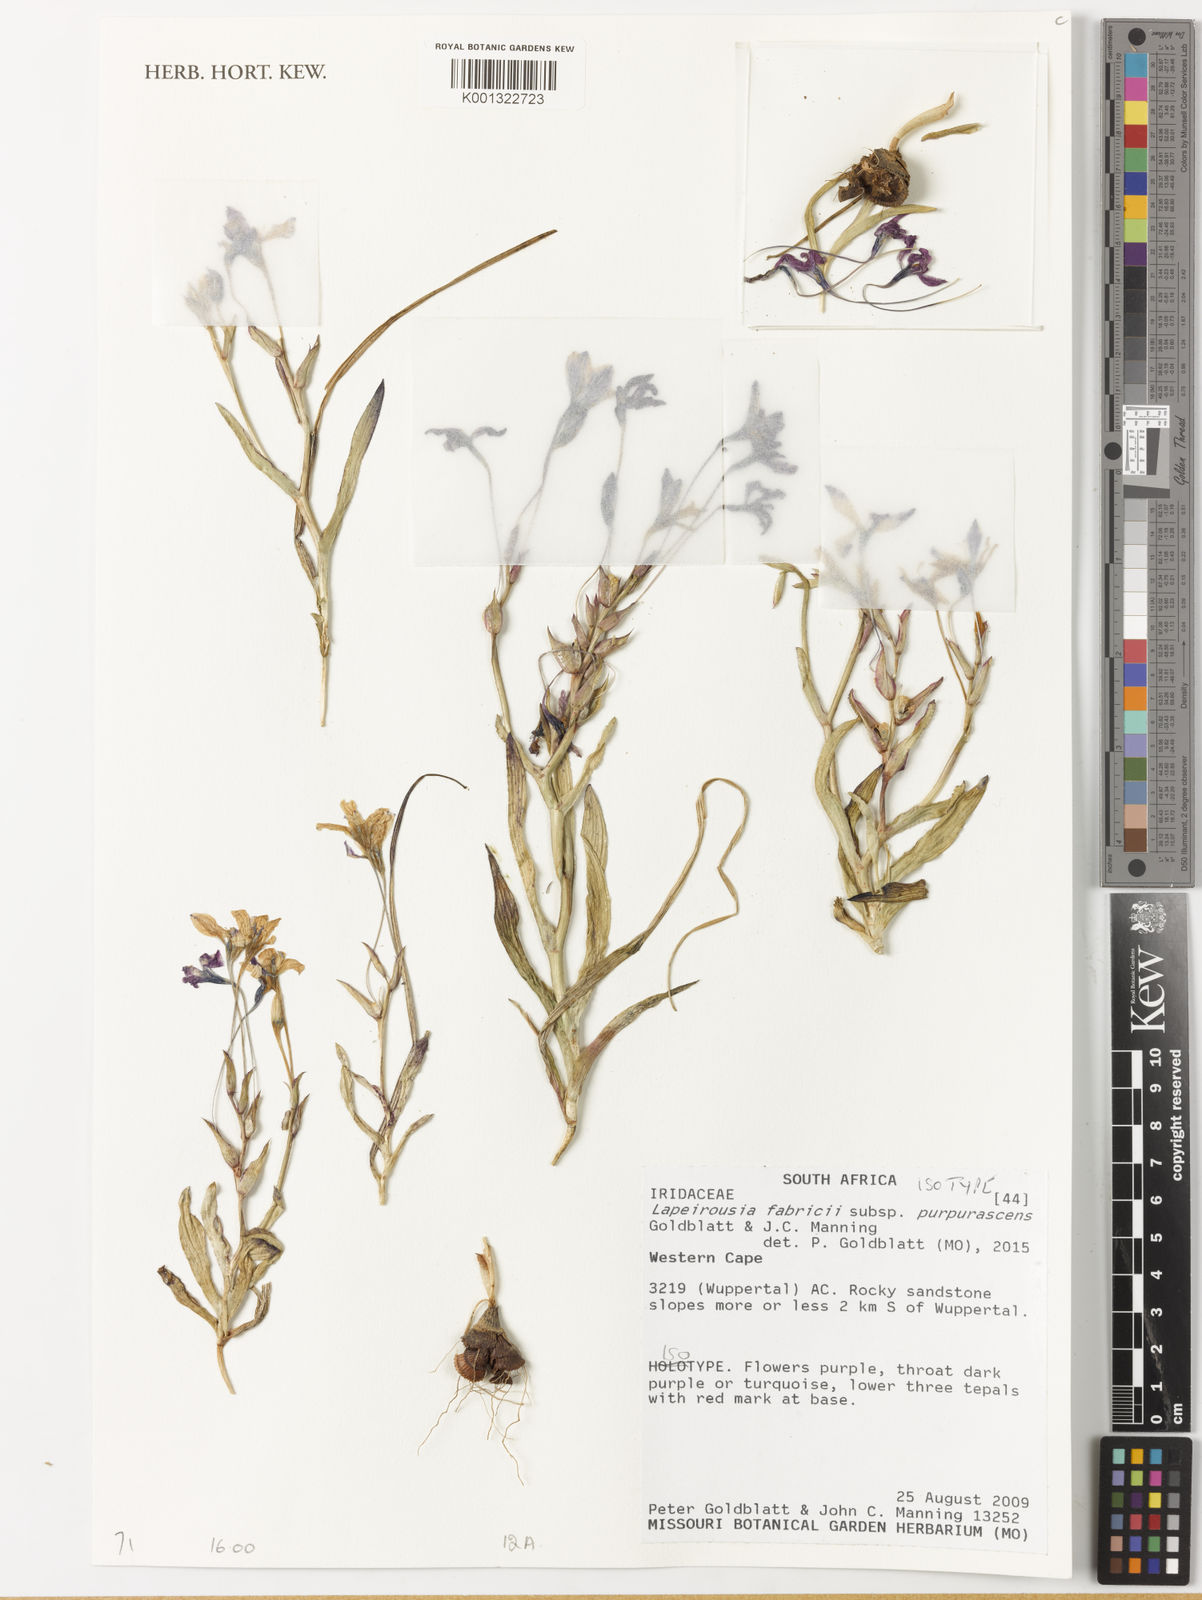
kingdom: Plantae
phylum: Tracheophyta
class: Liliopsida
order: Asparagales
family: Iridaceae
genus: Lapeirousia
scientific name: Lapeirousia
